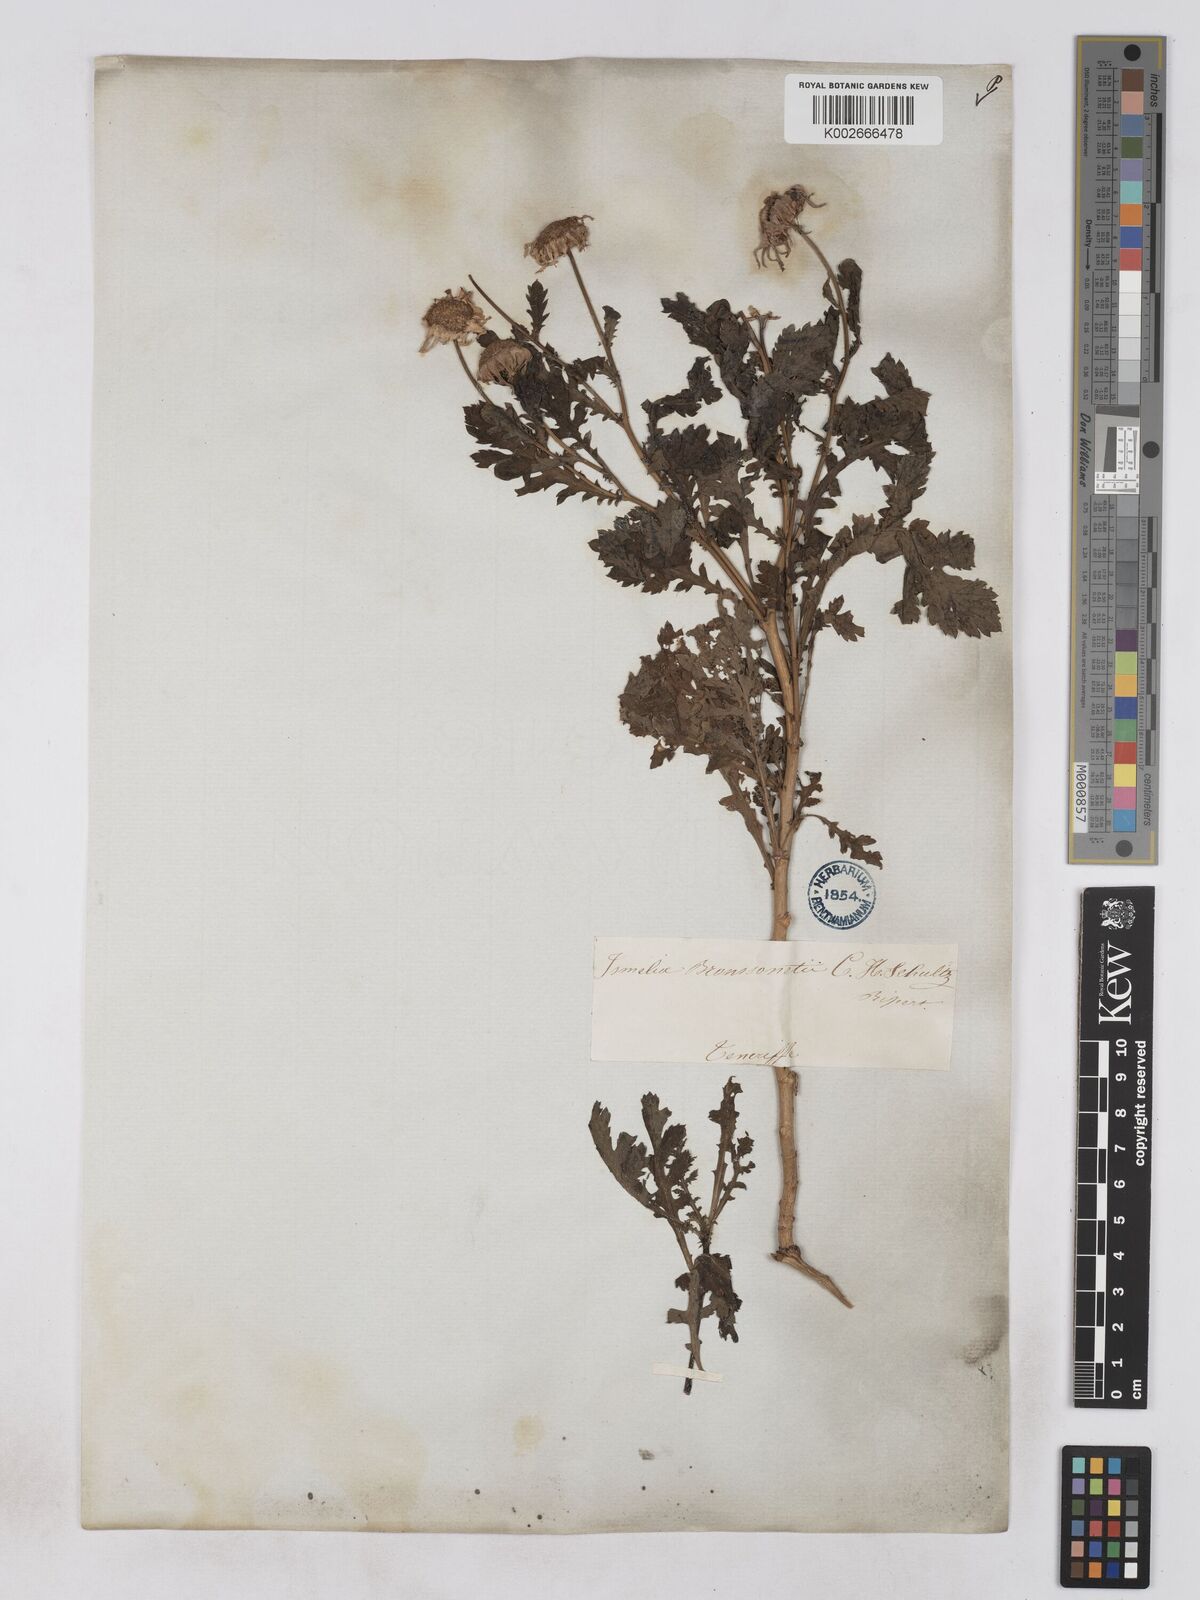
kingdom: Plantae
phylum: Tracheophyta
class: Magnoliopsida
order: Asterales
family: Asteraceae
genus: Argyranthemum
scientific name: Argyranthemum broussonetii
